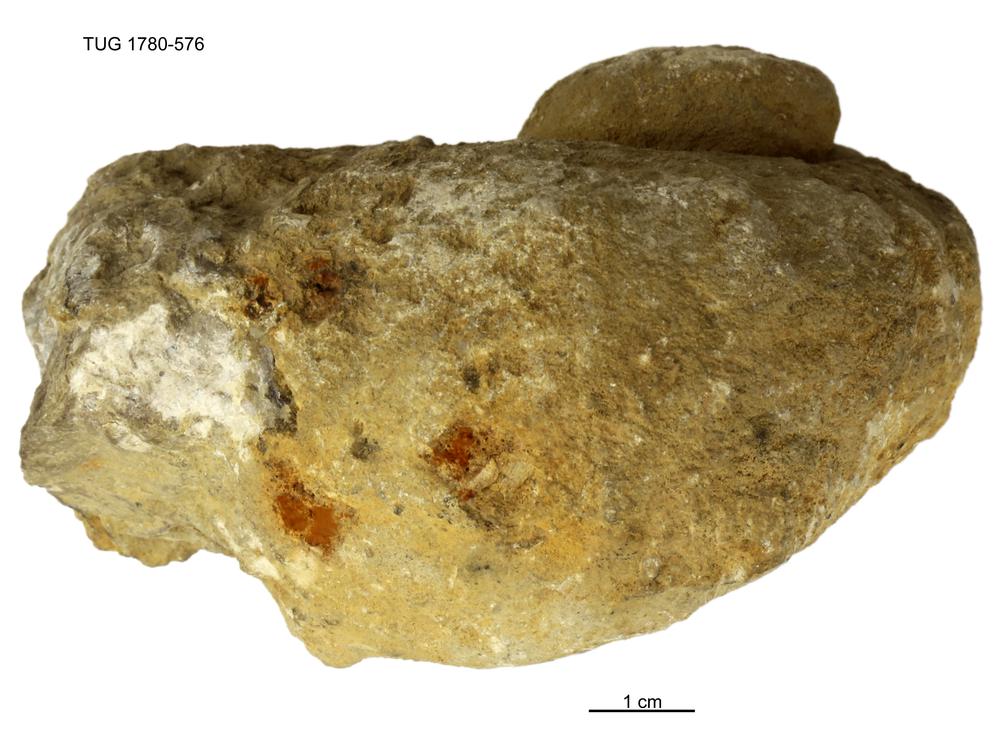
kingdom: Animalia
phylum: Mollusca
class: Gastropoda
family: Holopeidae
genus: Holopea
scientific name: Holopea ampullacea
